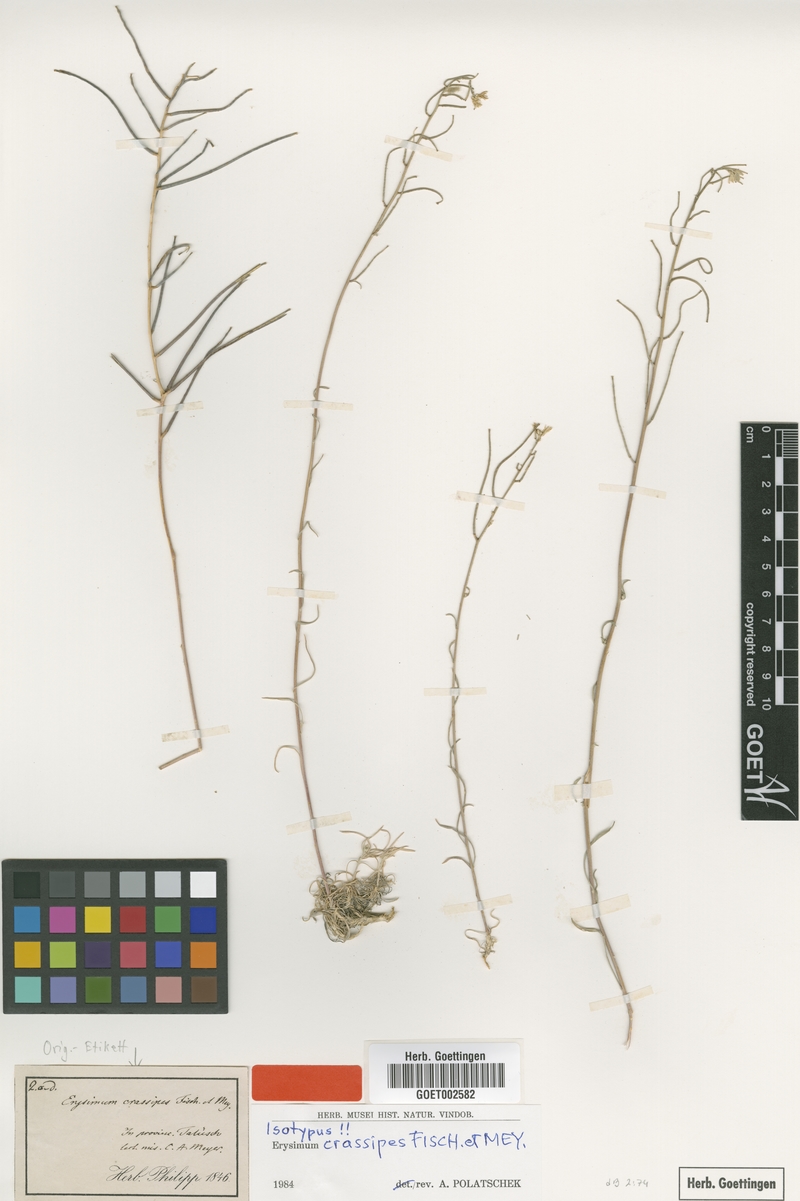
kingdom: Plantae
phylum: Tracheophyta
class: Magnoliopsida
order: Brassicales
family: Brassicaceae
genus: Erysimum
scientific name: Erysimum crassipes
